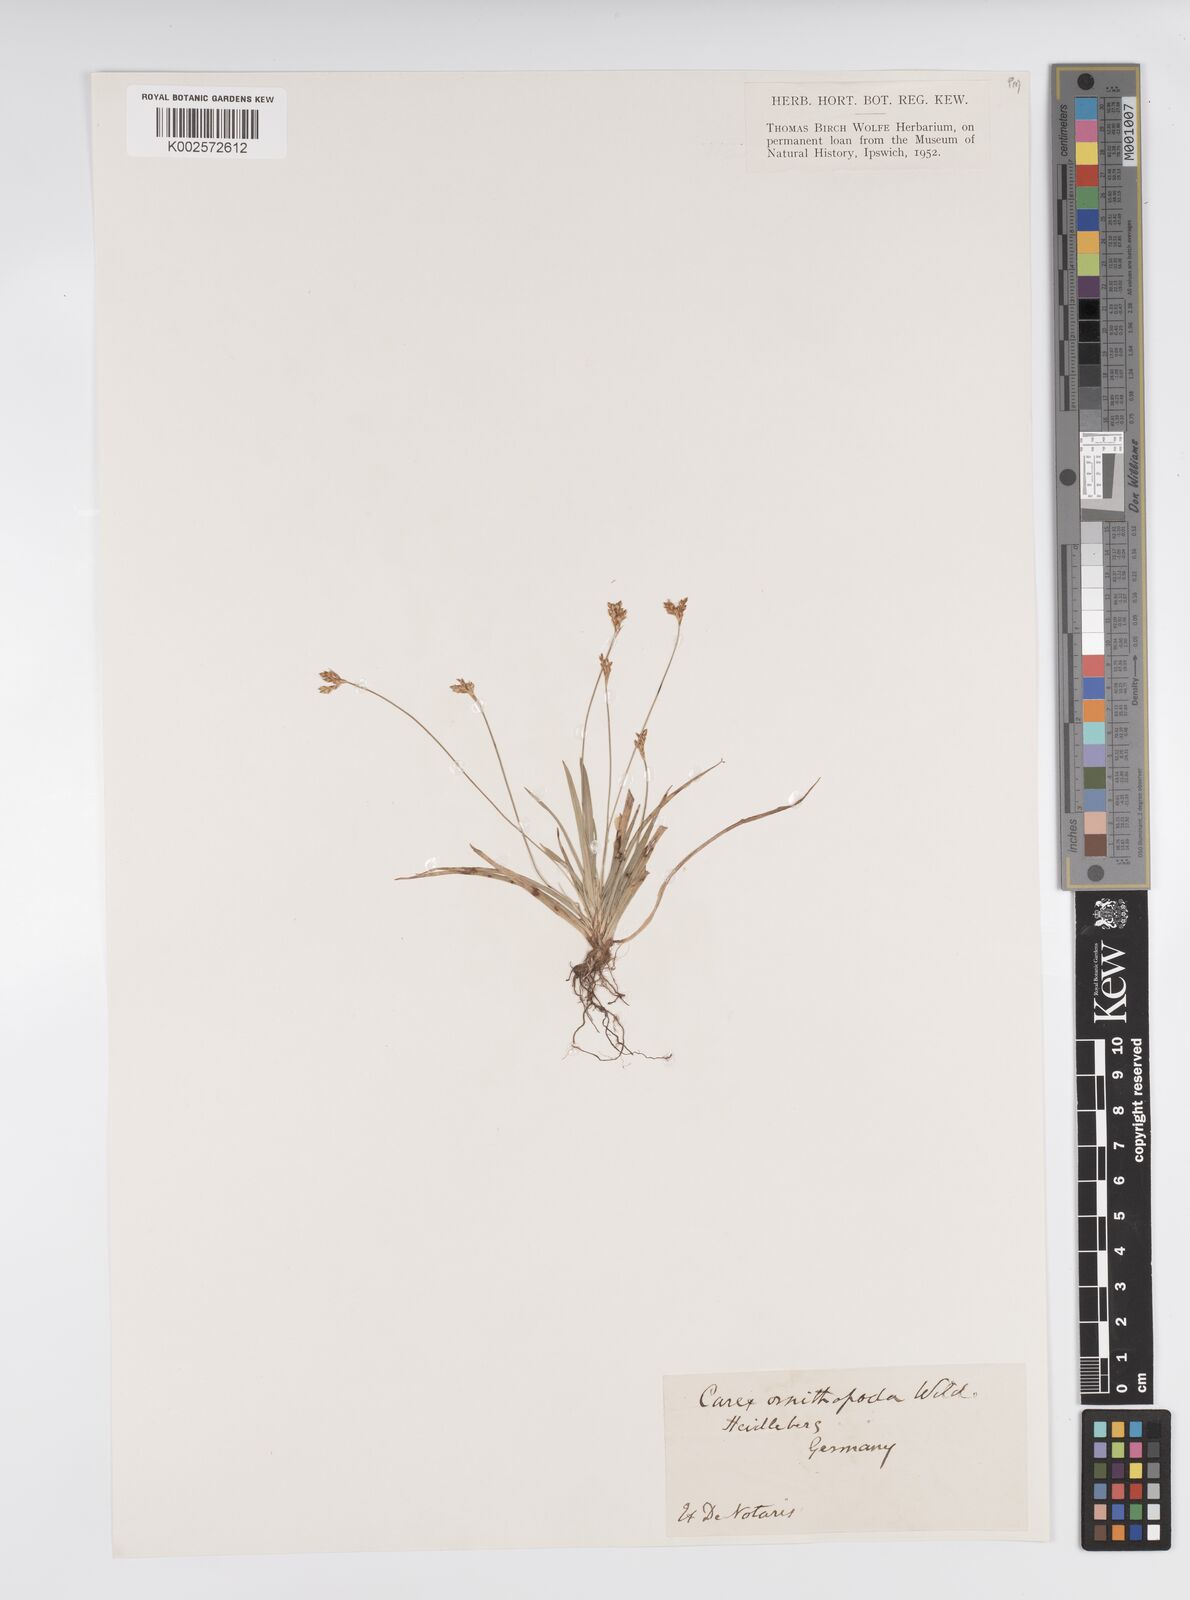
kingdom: Plantae
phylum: Tracheophyta
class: Liliopsida
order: Poales
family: Cyperaceae
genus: Carex
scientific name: Carex ornithopoda
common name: Bird's-foot sedge
